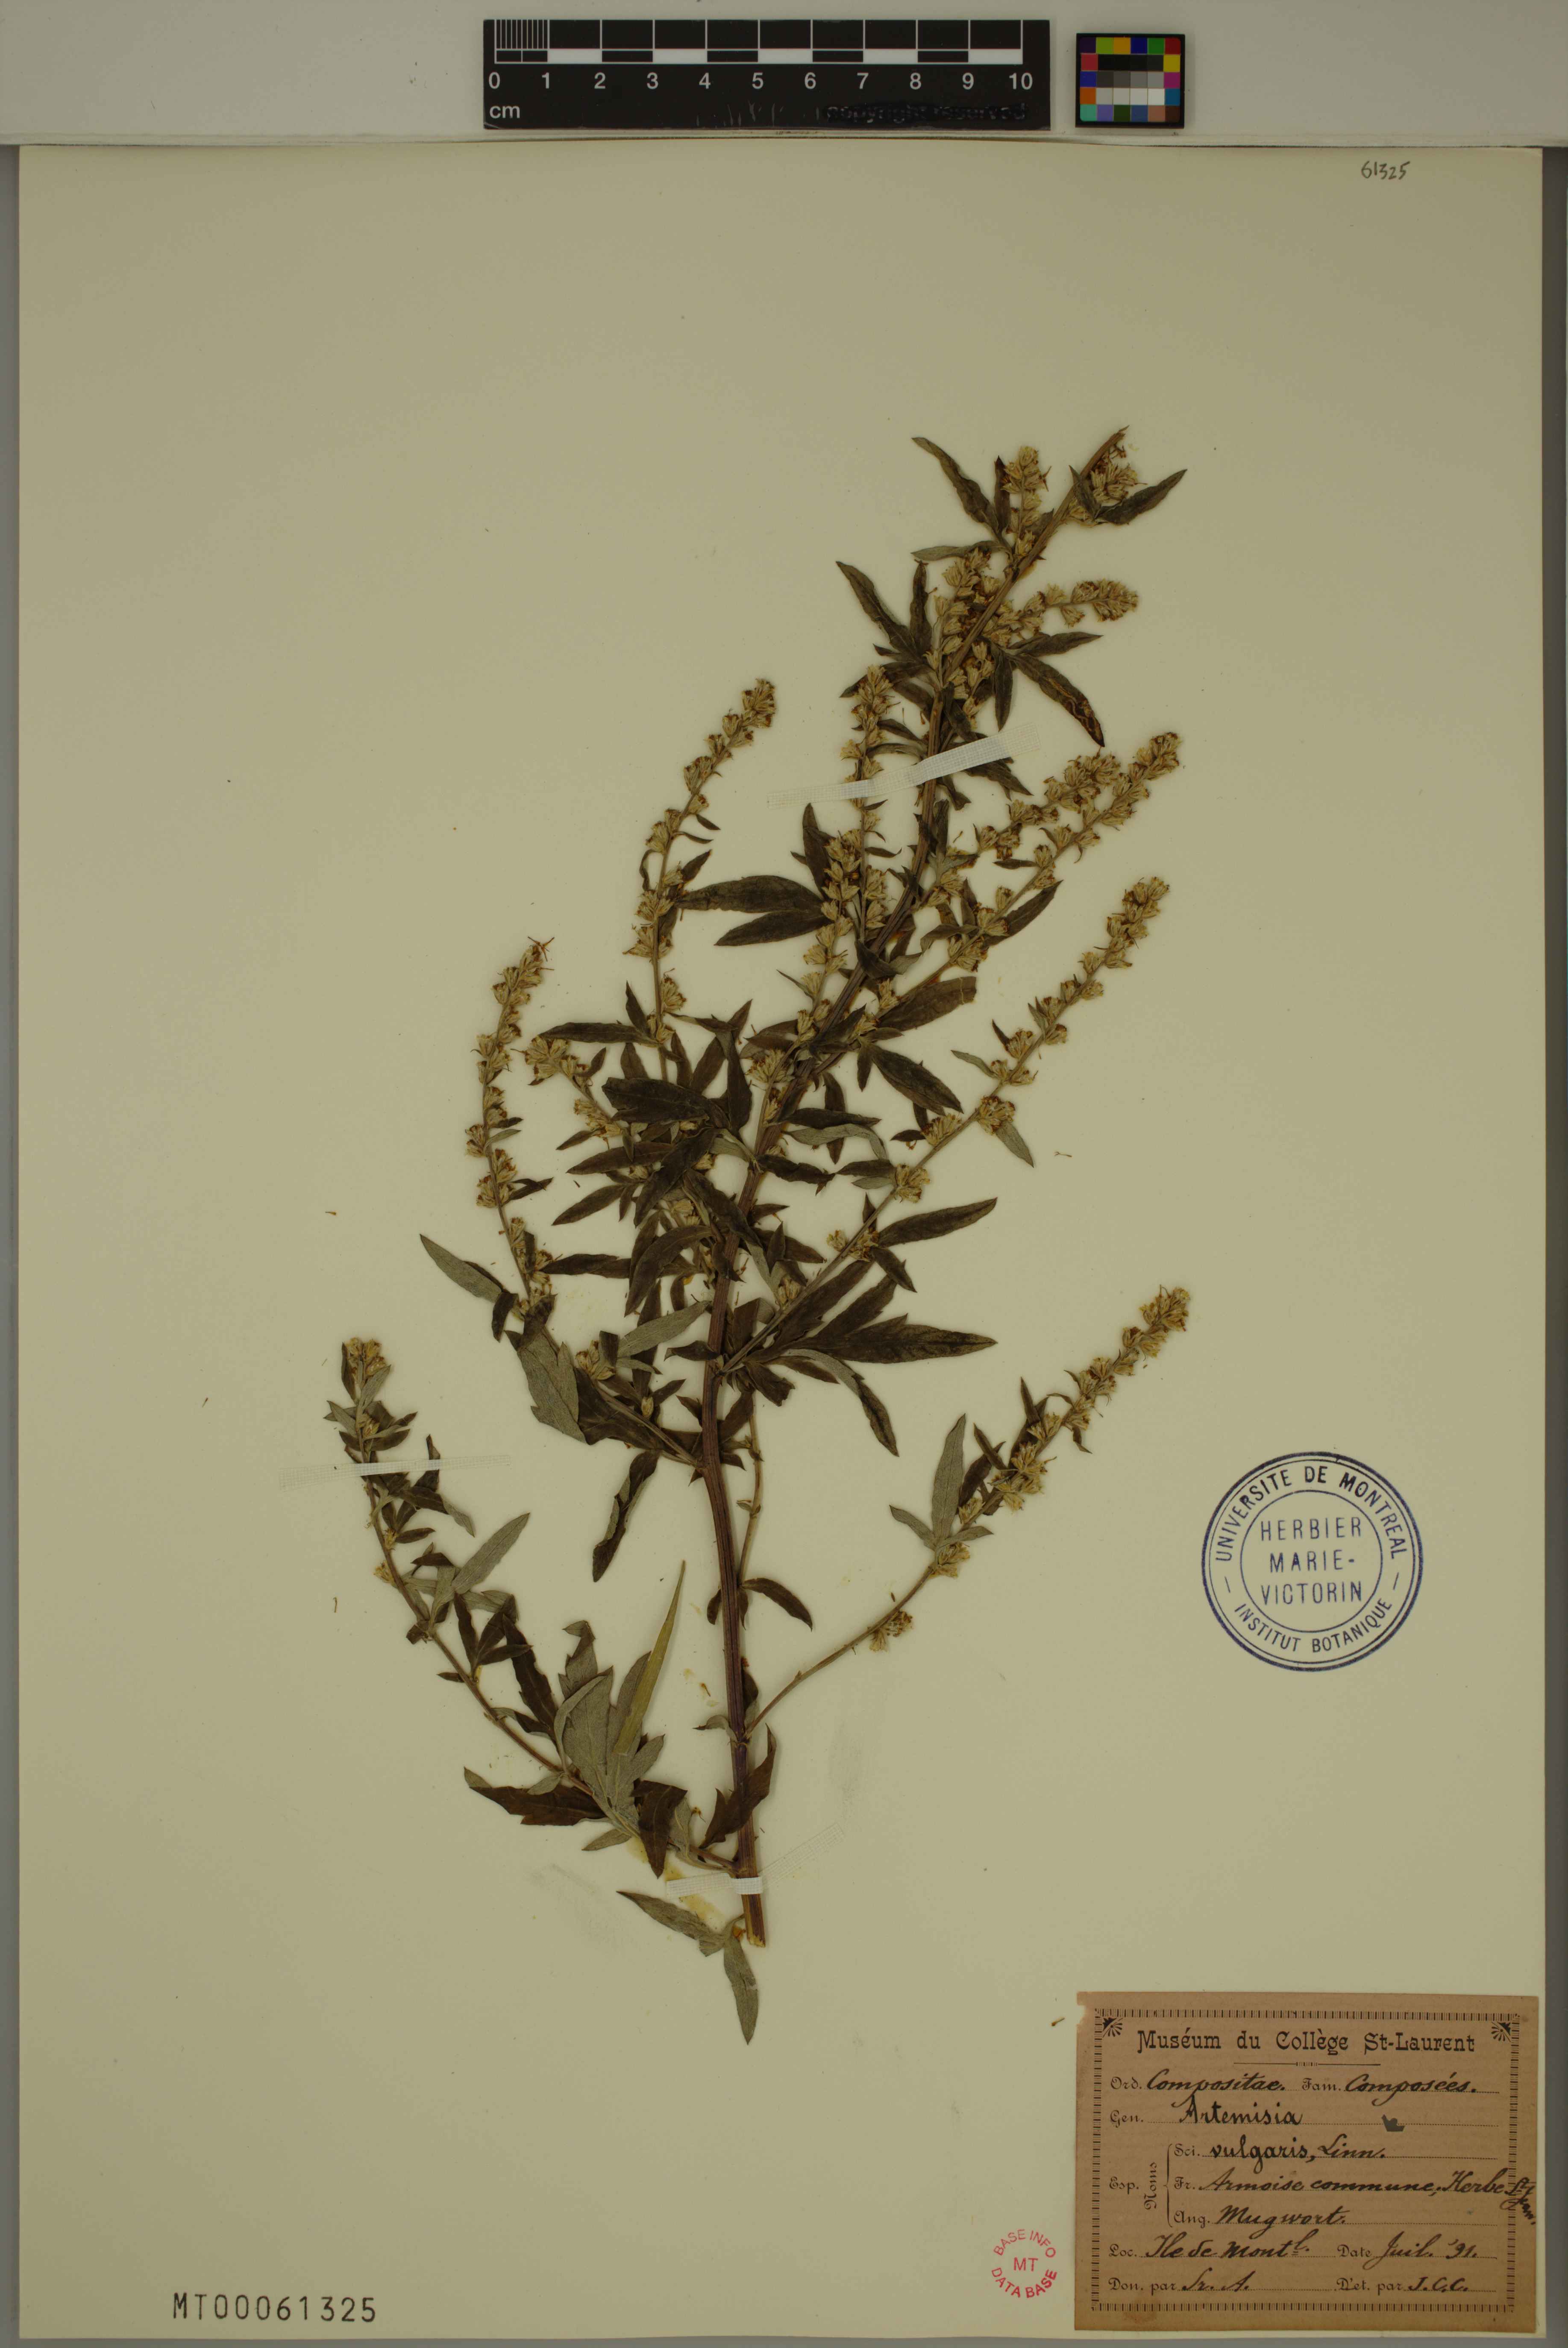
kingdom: Plantae
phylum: Tracheophyta
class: Magnoliopsida
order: Asterales
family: Asteraceae
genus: Artemisia
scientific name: Artemisia vulgaris
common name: Mugwort
